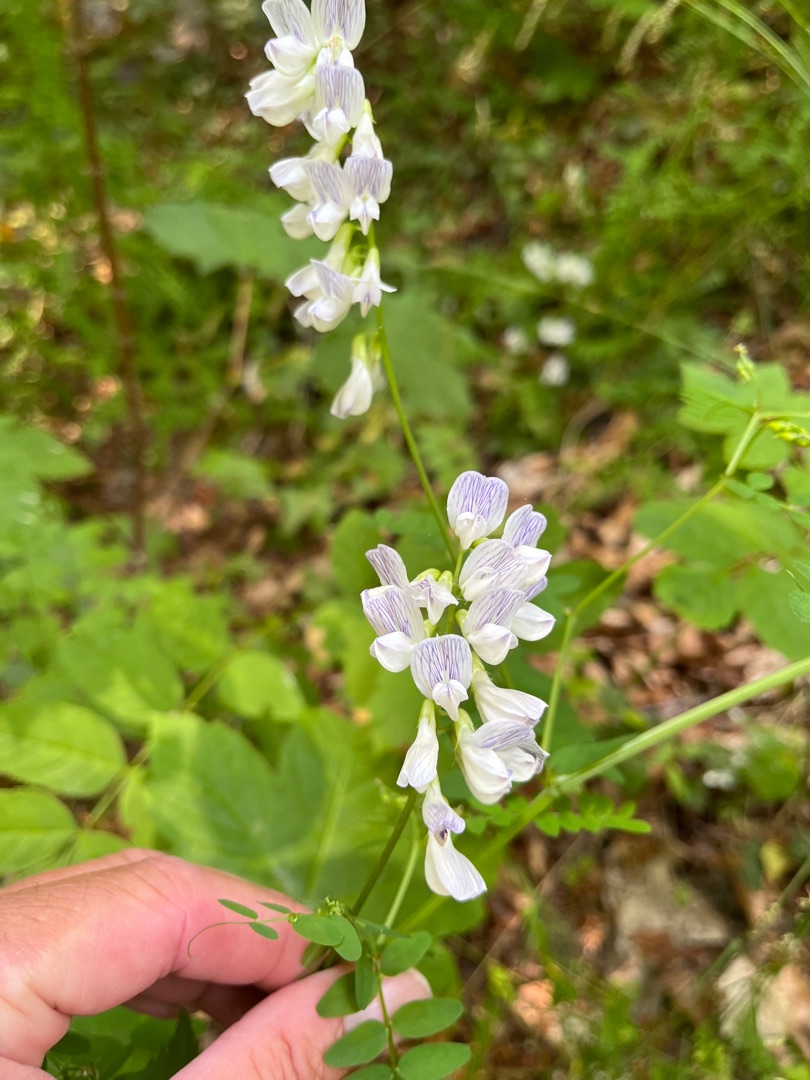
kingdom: Plantae
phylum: Tracheophyta
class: Magnoliopsida
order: Fabales
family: Fabaceae
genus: Vicia
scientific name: Vicia sylvatica
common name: Skov-vikke
